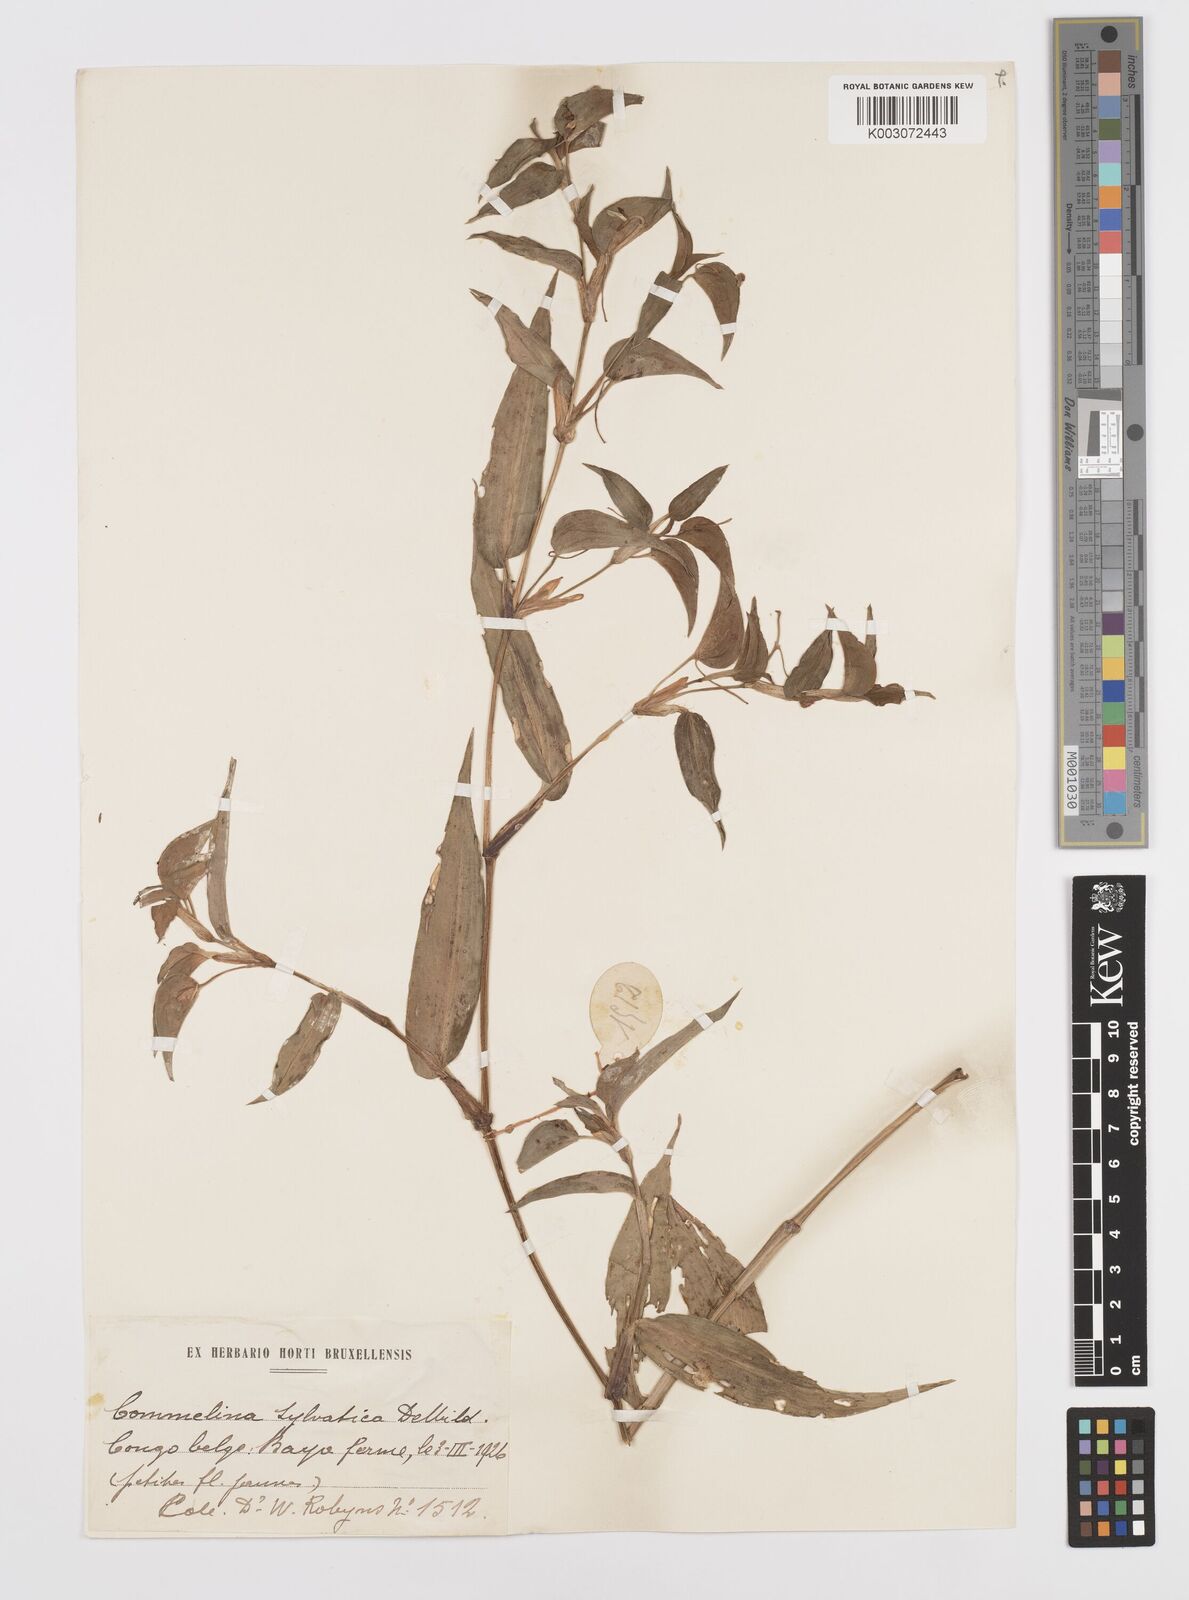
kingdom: Plantae
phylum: Tracheophyta
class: Liliopsida
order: Commelinales
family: Commelinaceae
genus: Commelina
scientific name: Commelina sylvatica
